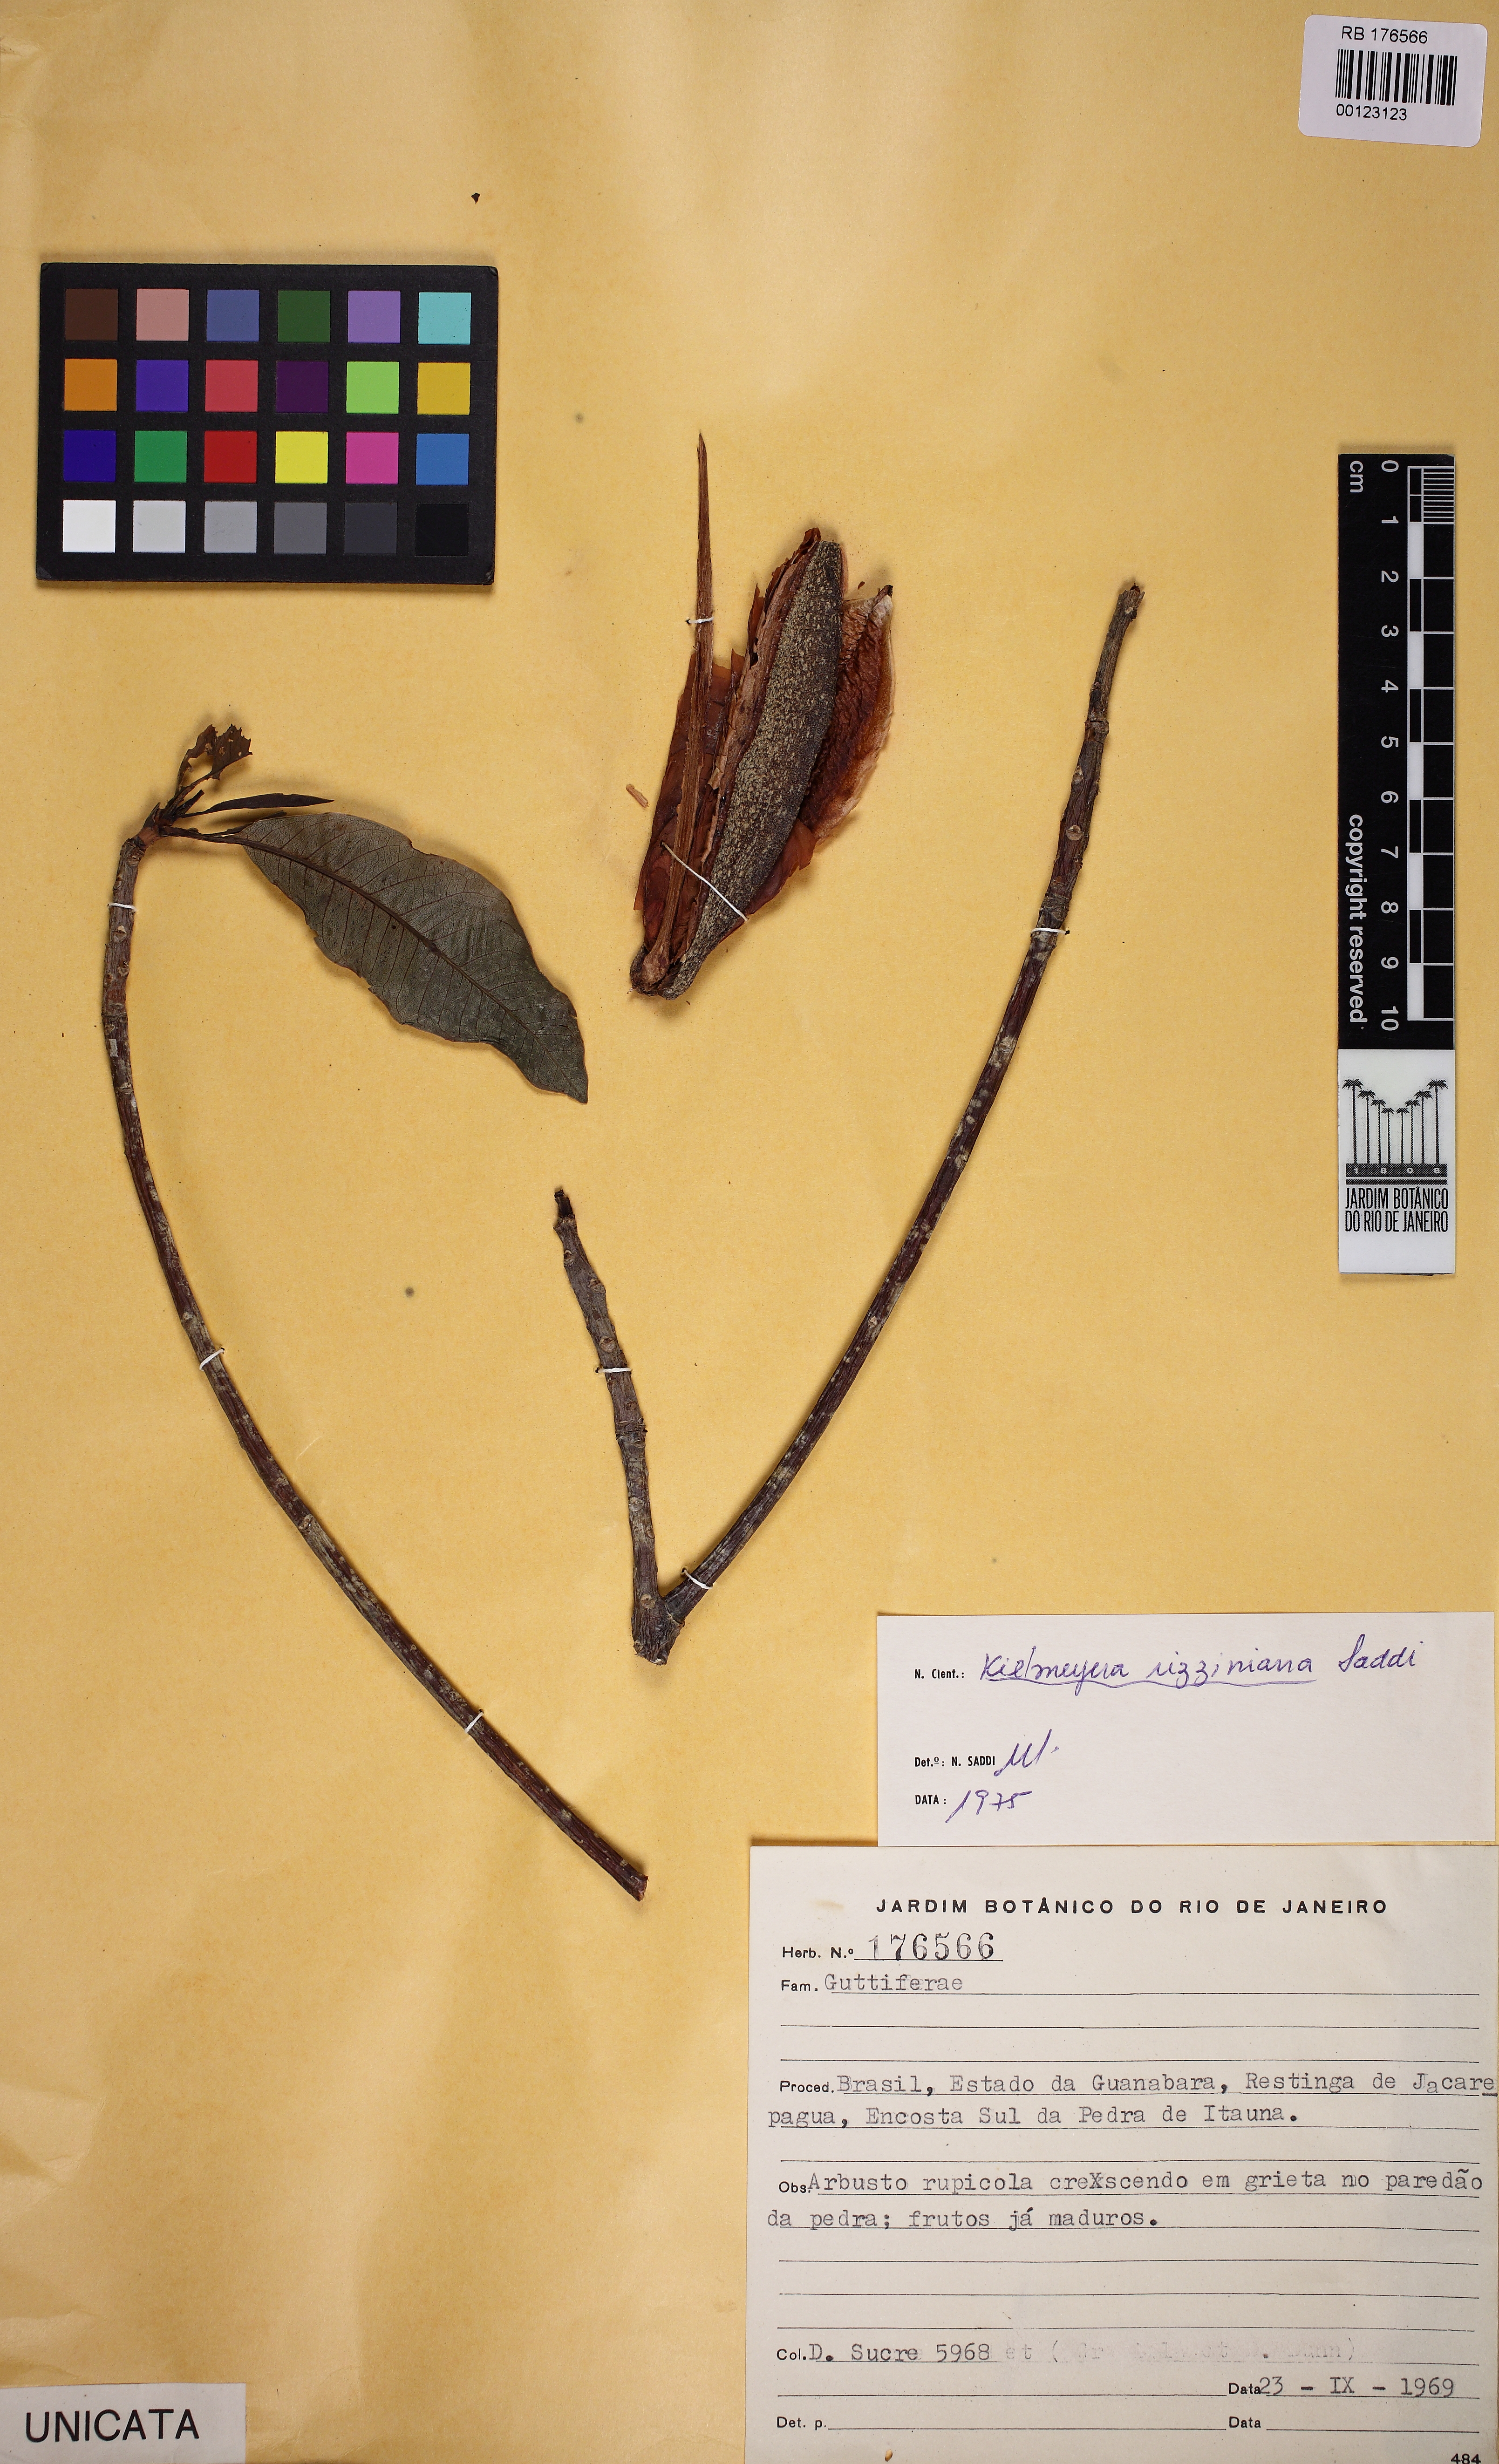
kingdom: Plantae
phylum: Tracheophyta
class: Magnoliopsida
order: Malpighiales
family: Calophyllaceae
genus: Kielmeyera
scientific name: Kielmeyera rizziniana
